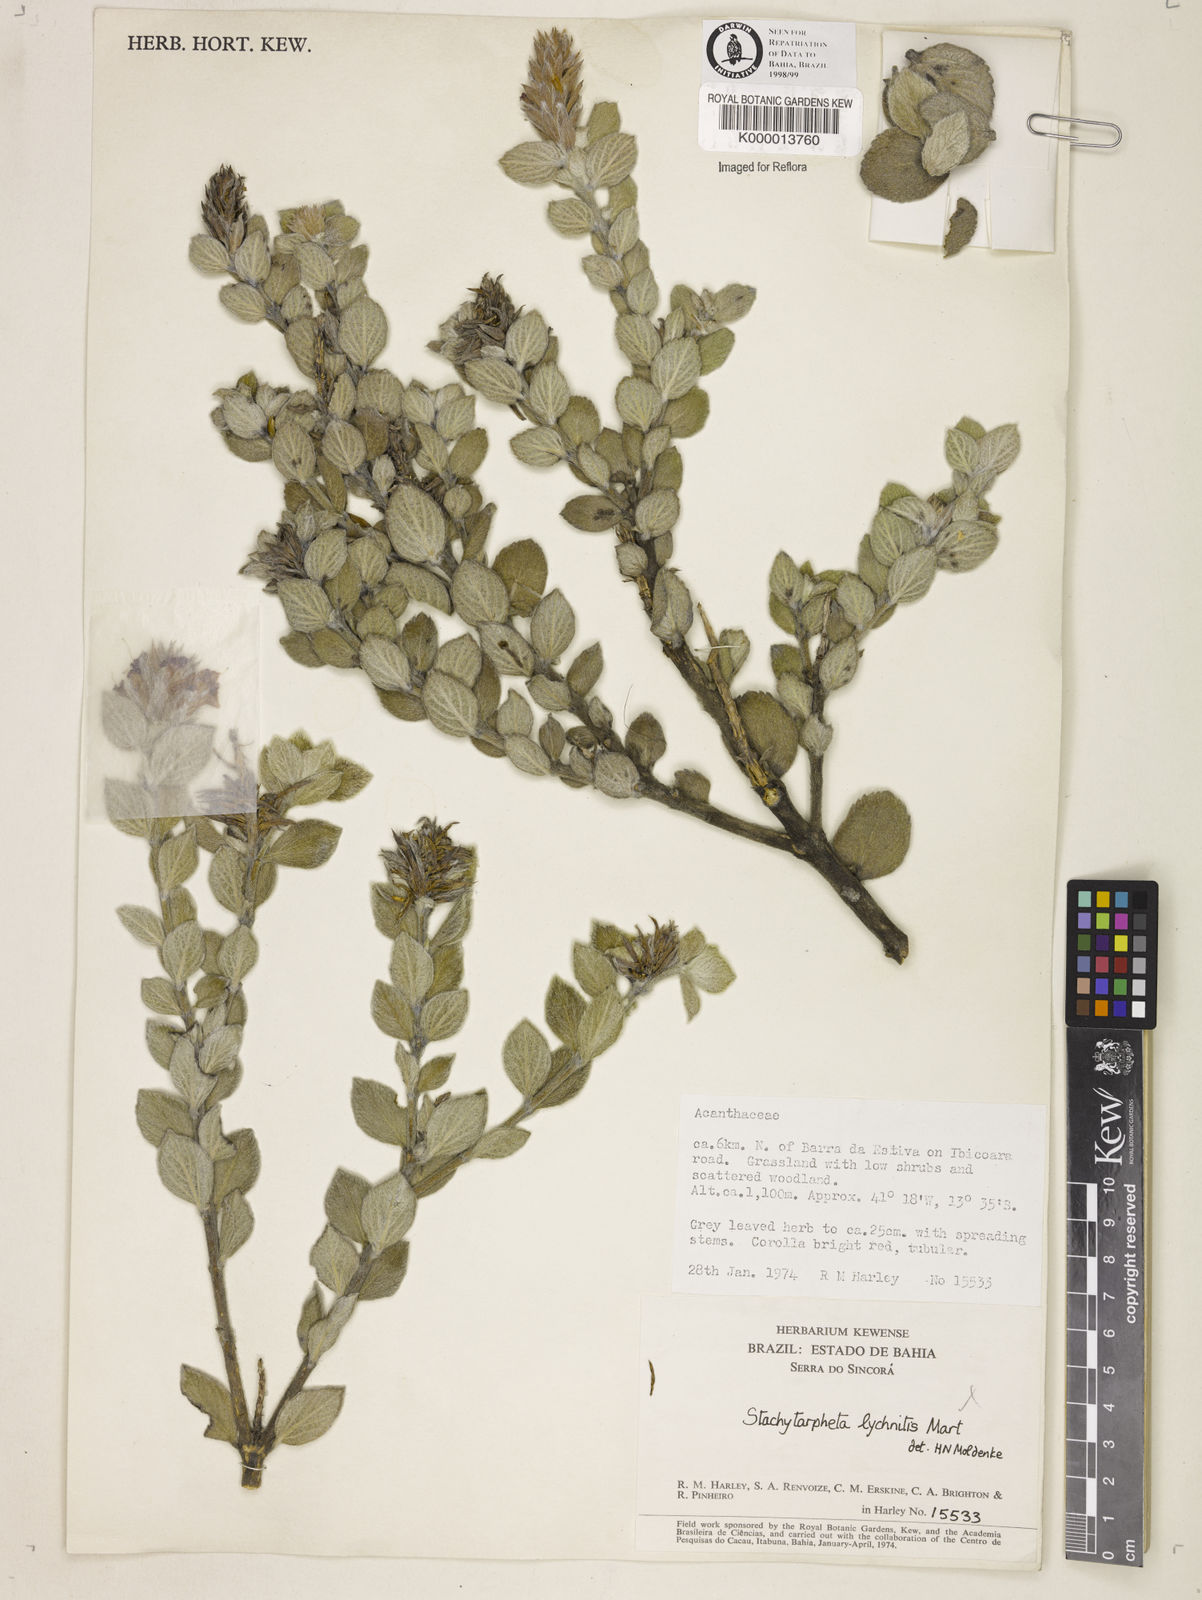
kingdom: Plantae
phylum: Tracheophyta
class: Magnoliopsida
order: Lamiales
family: Verbenaceae
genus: Stachytarpheta
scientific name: Stachytarpheta
